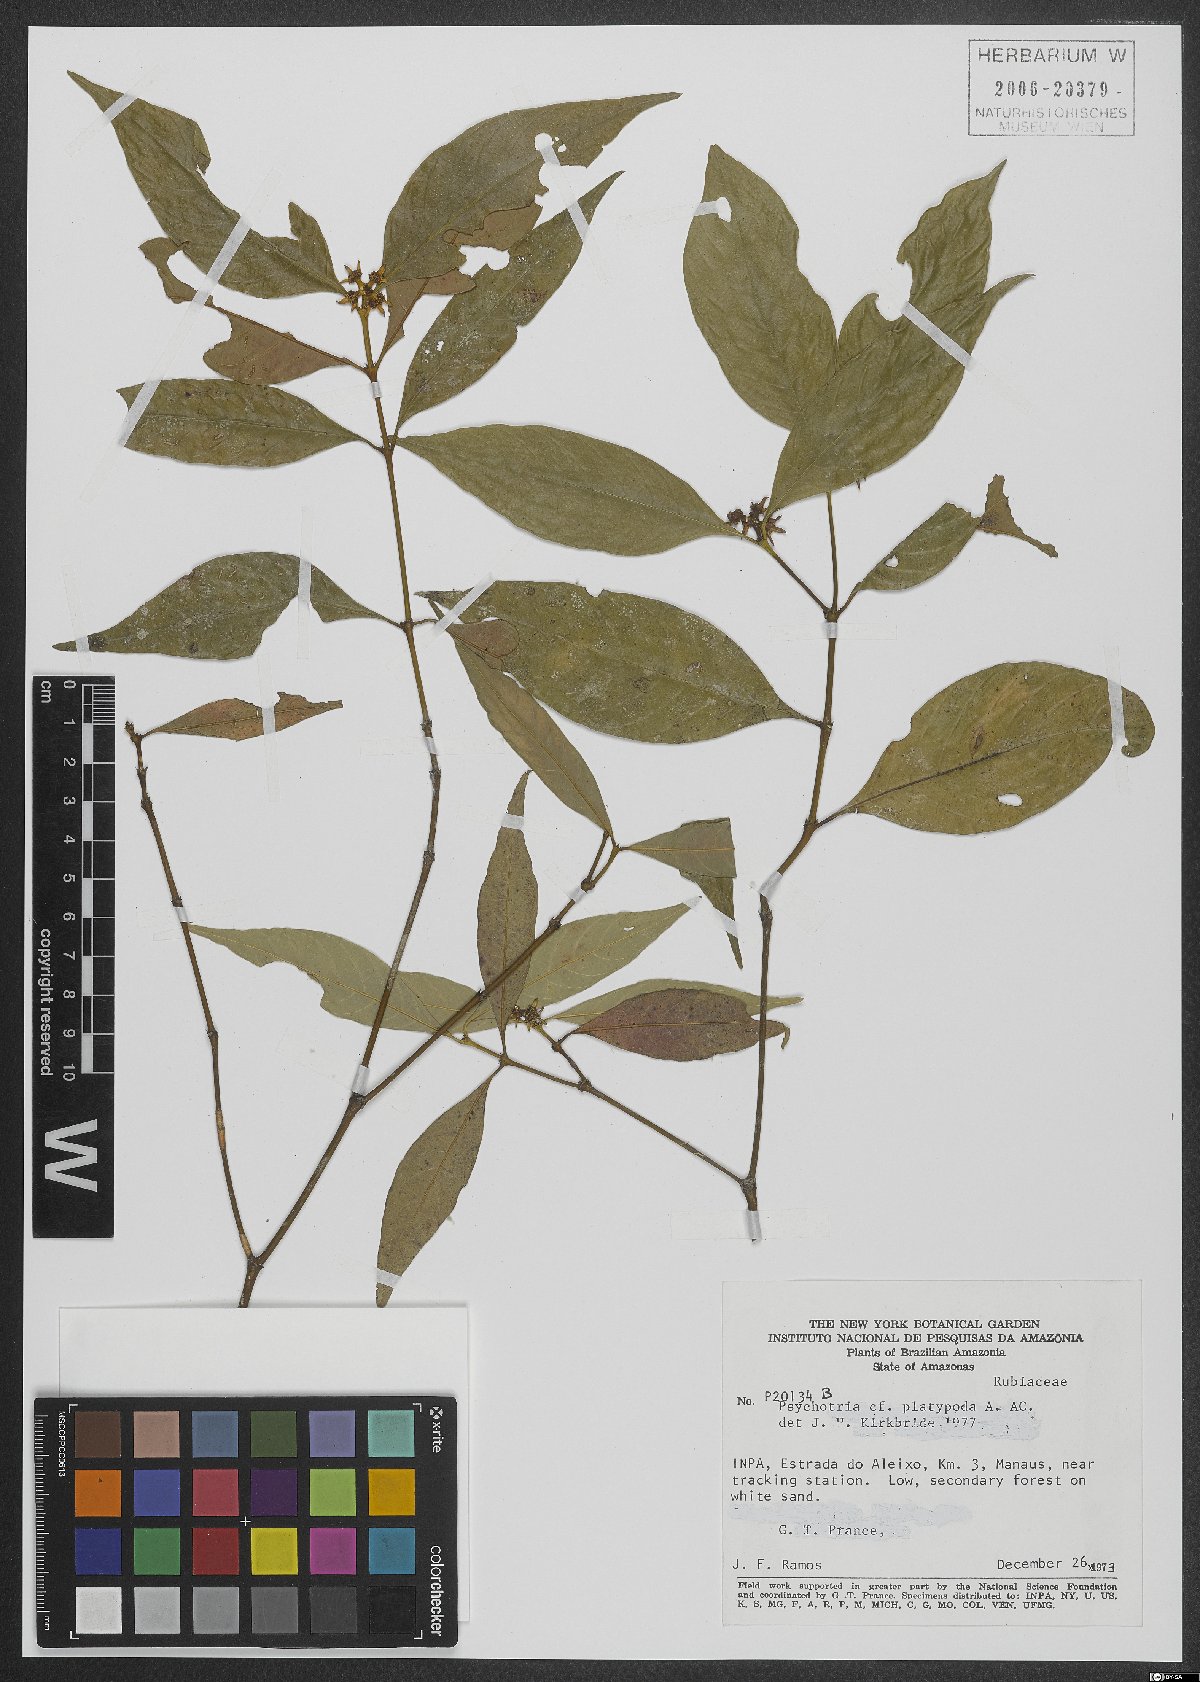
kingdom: Plantae
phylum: Tracheophyta
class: Magnoliopsida
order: Gentianales
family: Rubiaceae
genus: Palicourea
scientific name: Palicourea dichotoma
